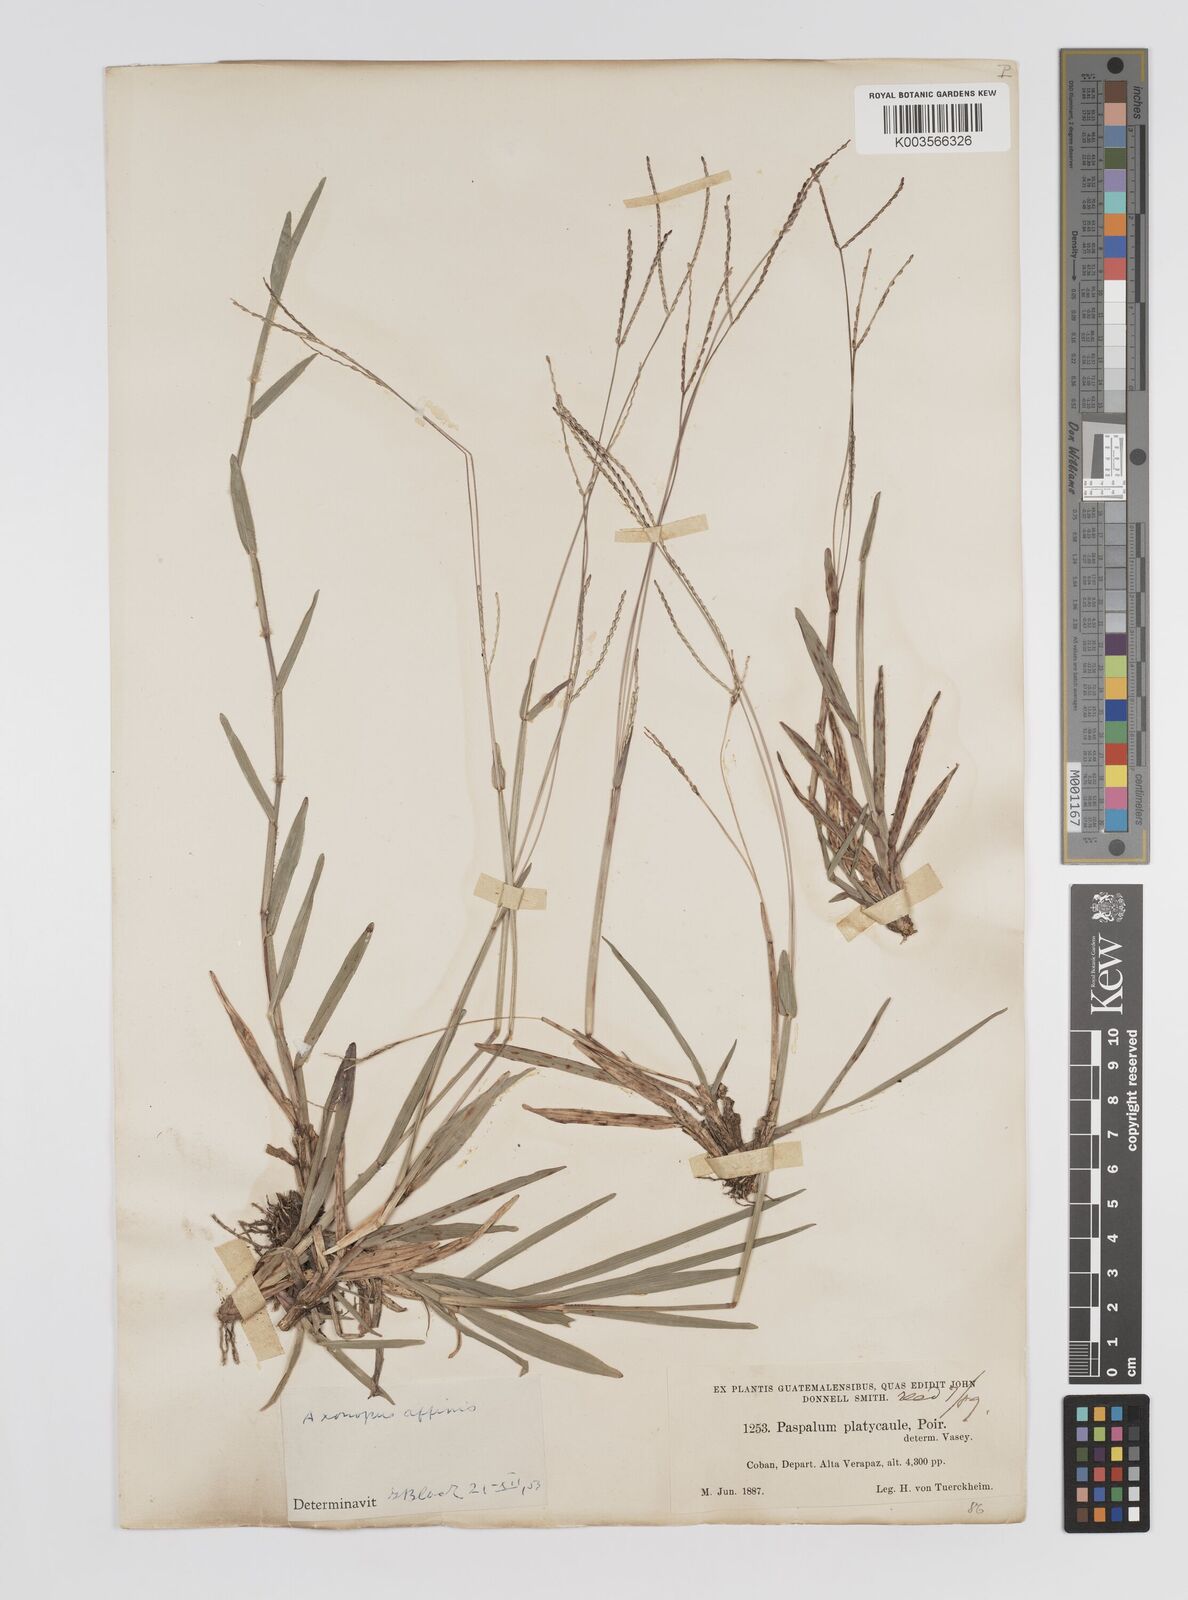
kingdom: Plantae
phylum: Tracheophyta
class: Liliopsida
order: Poales
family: Poaceae
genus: Axonopus
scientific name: Axonopus fissifolius
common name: Common carpetgrass
